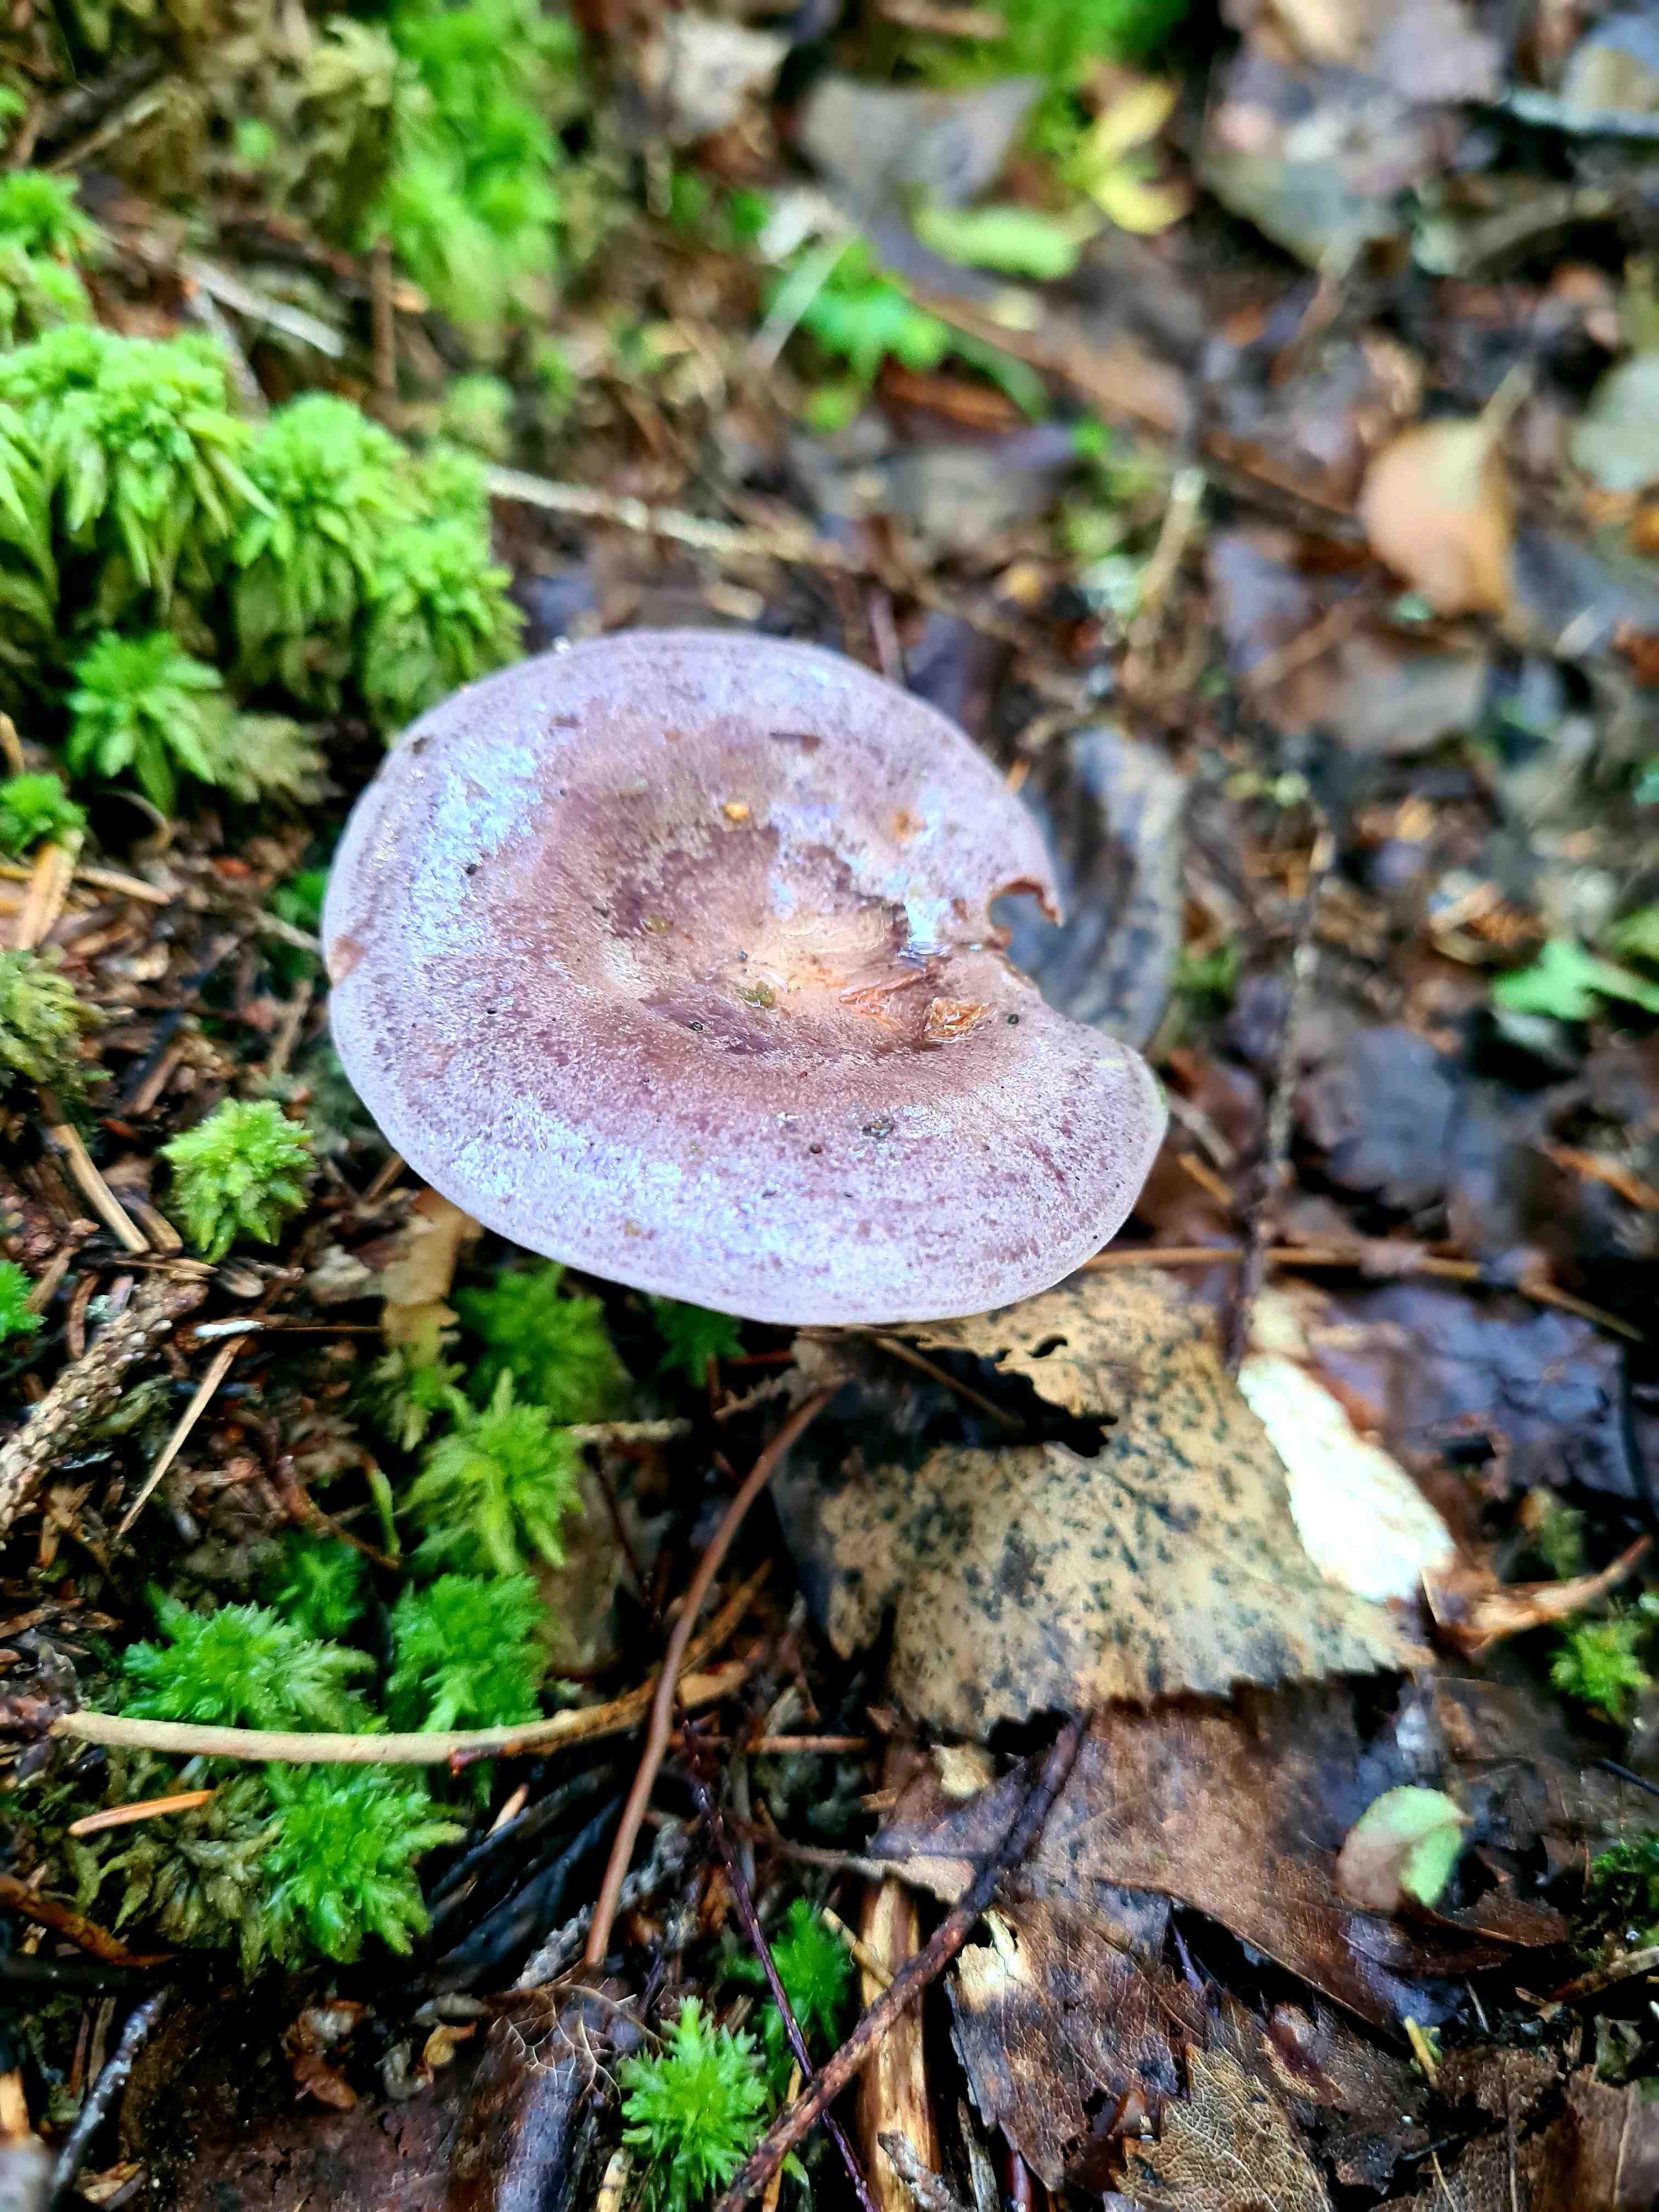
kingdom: Fungi
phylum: Basidiomycota
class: Agaricomycetes
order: Russulales
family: Russulaceae
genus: Lactarius
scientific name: Lactarius trivialis
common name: nordisk mælkehat
